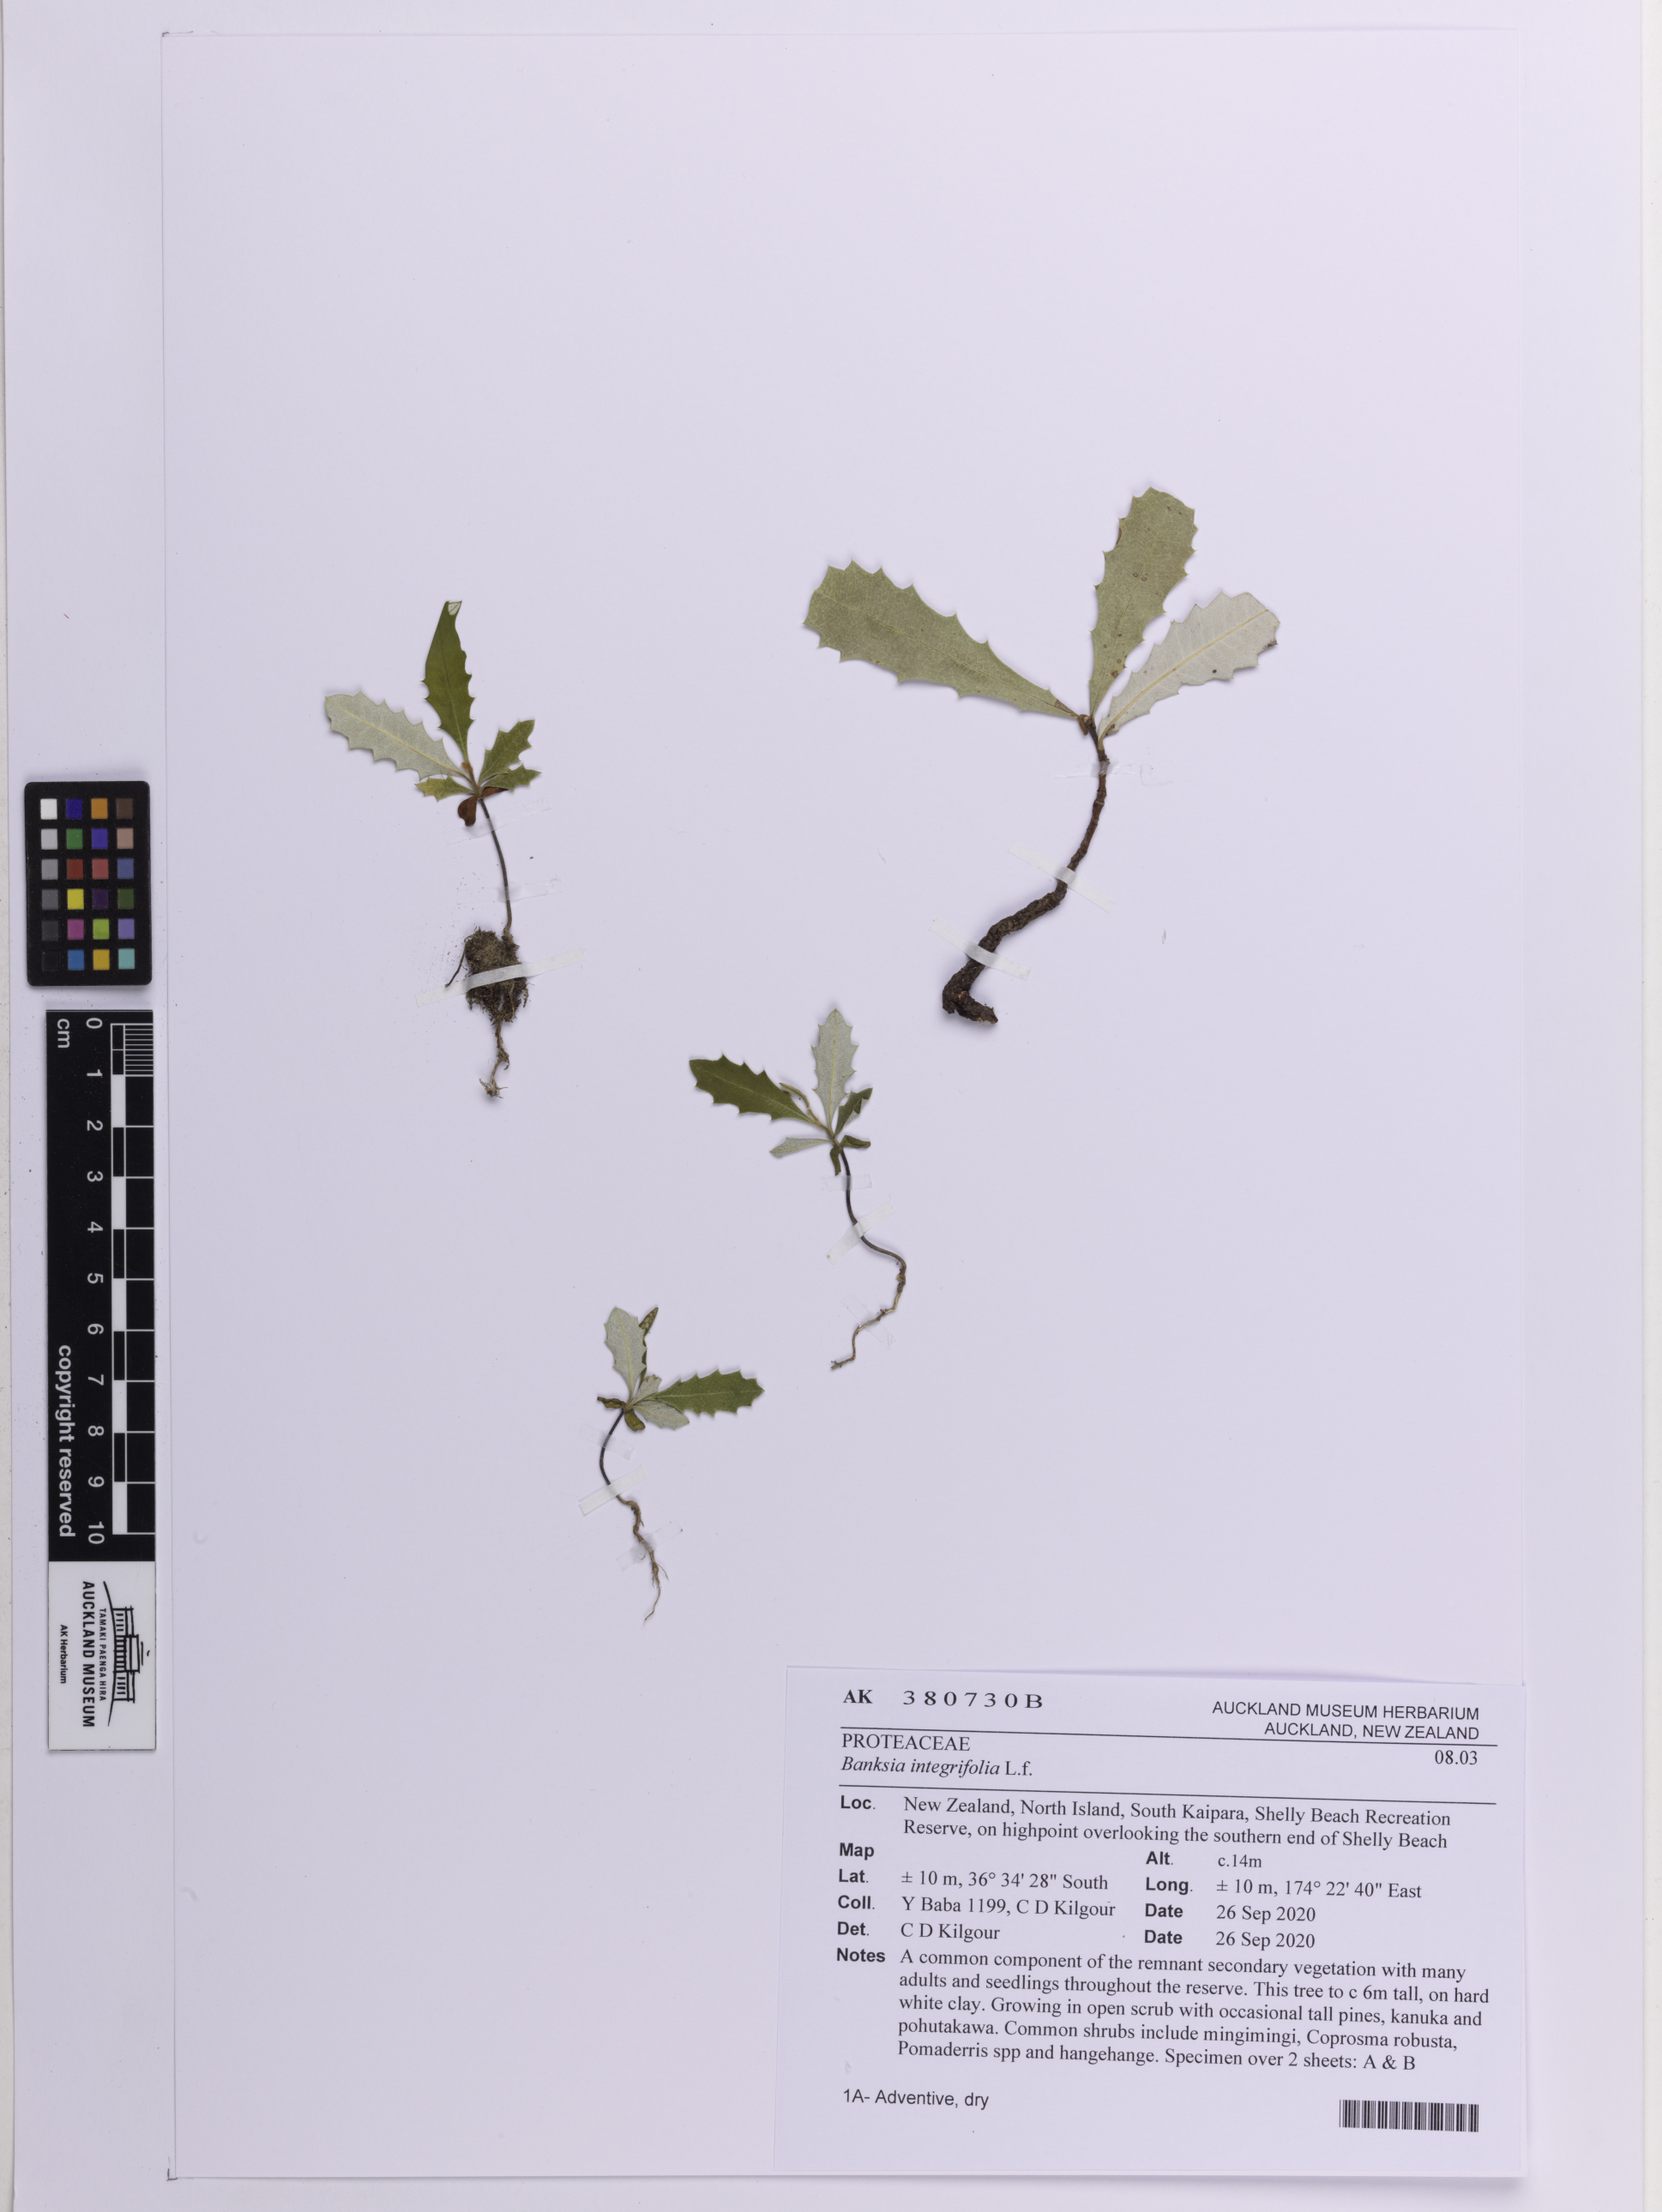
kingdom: Plantae
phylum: Tracheophyta
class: Magnoliopsida
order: Proteales
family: Proteaceae
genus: Banksia
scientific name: Banksia integrifolia
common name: White-honeysuckle
